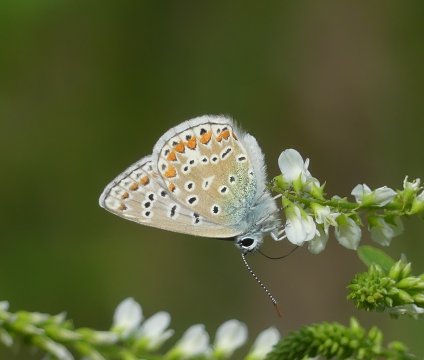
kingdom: Animalia
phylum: Arthropoda
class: Insecta
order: Lepidoptera
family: Lycaenidae
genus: Polyommatus
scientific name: Polyommatus icarus
